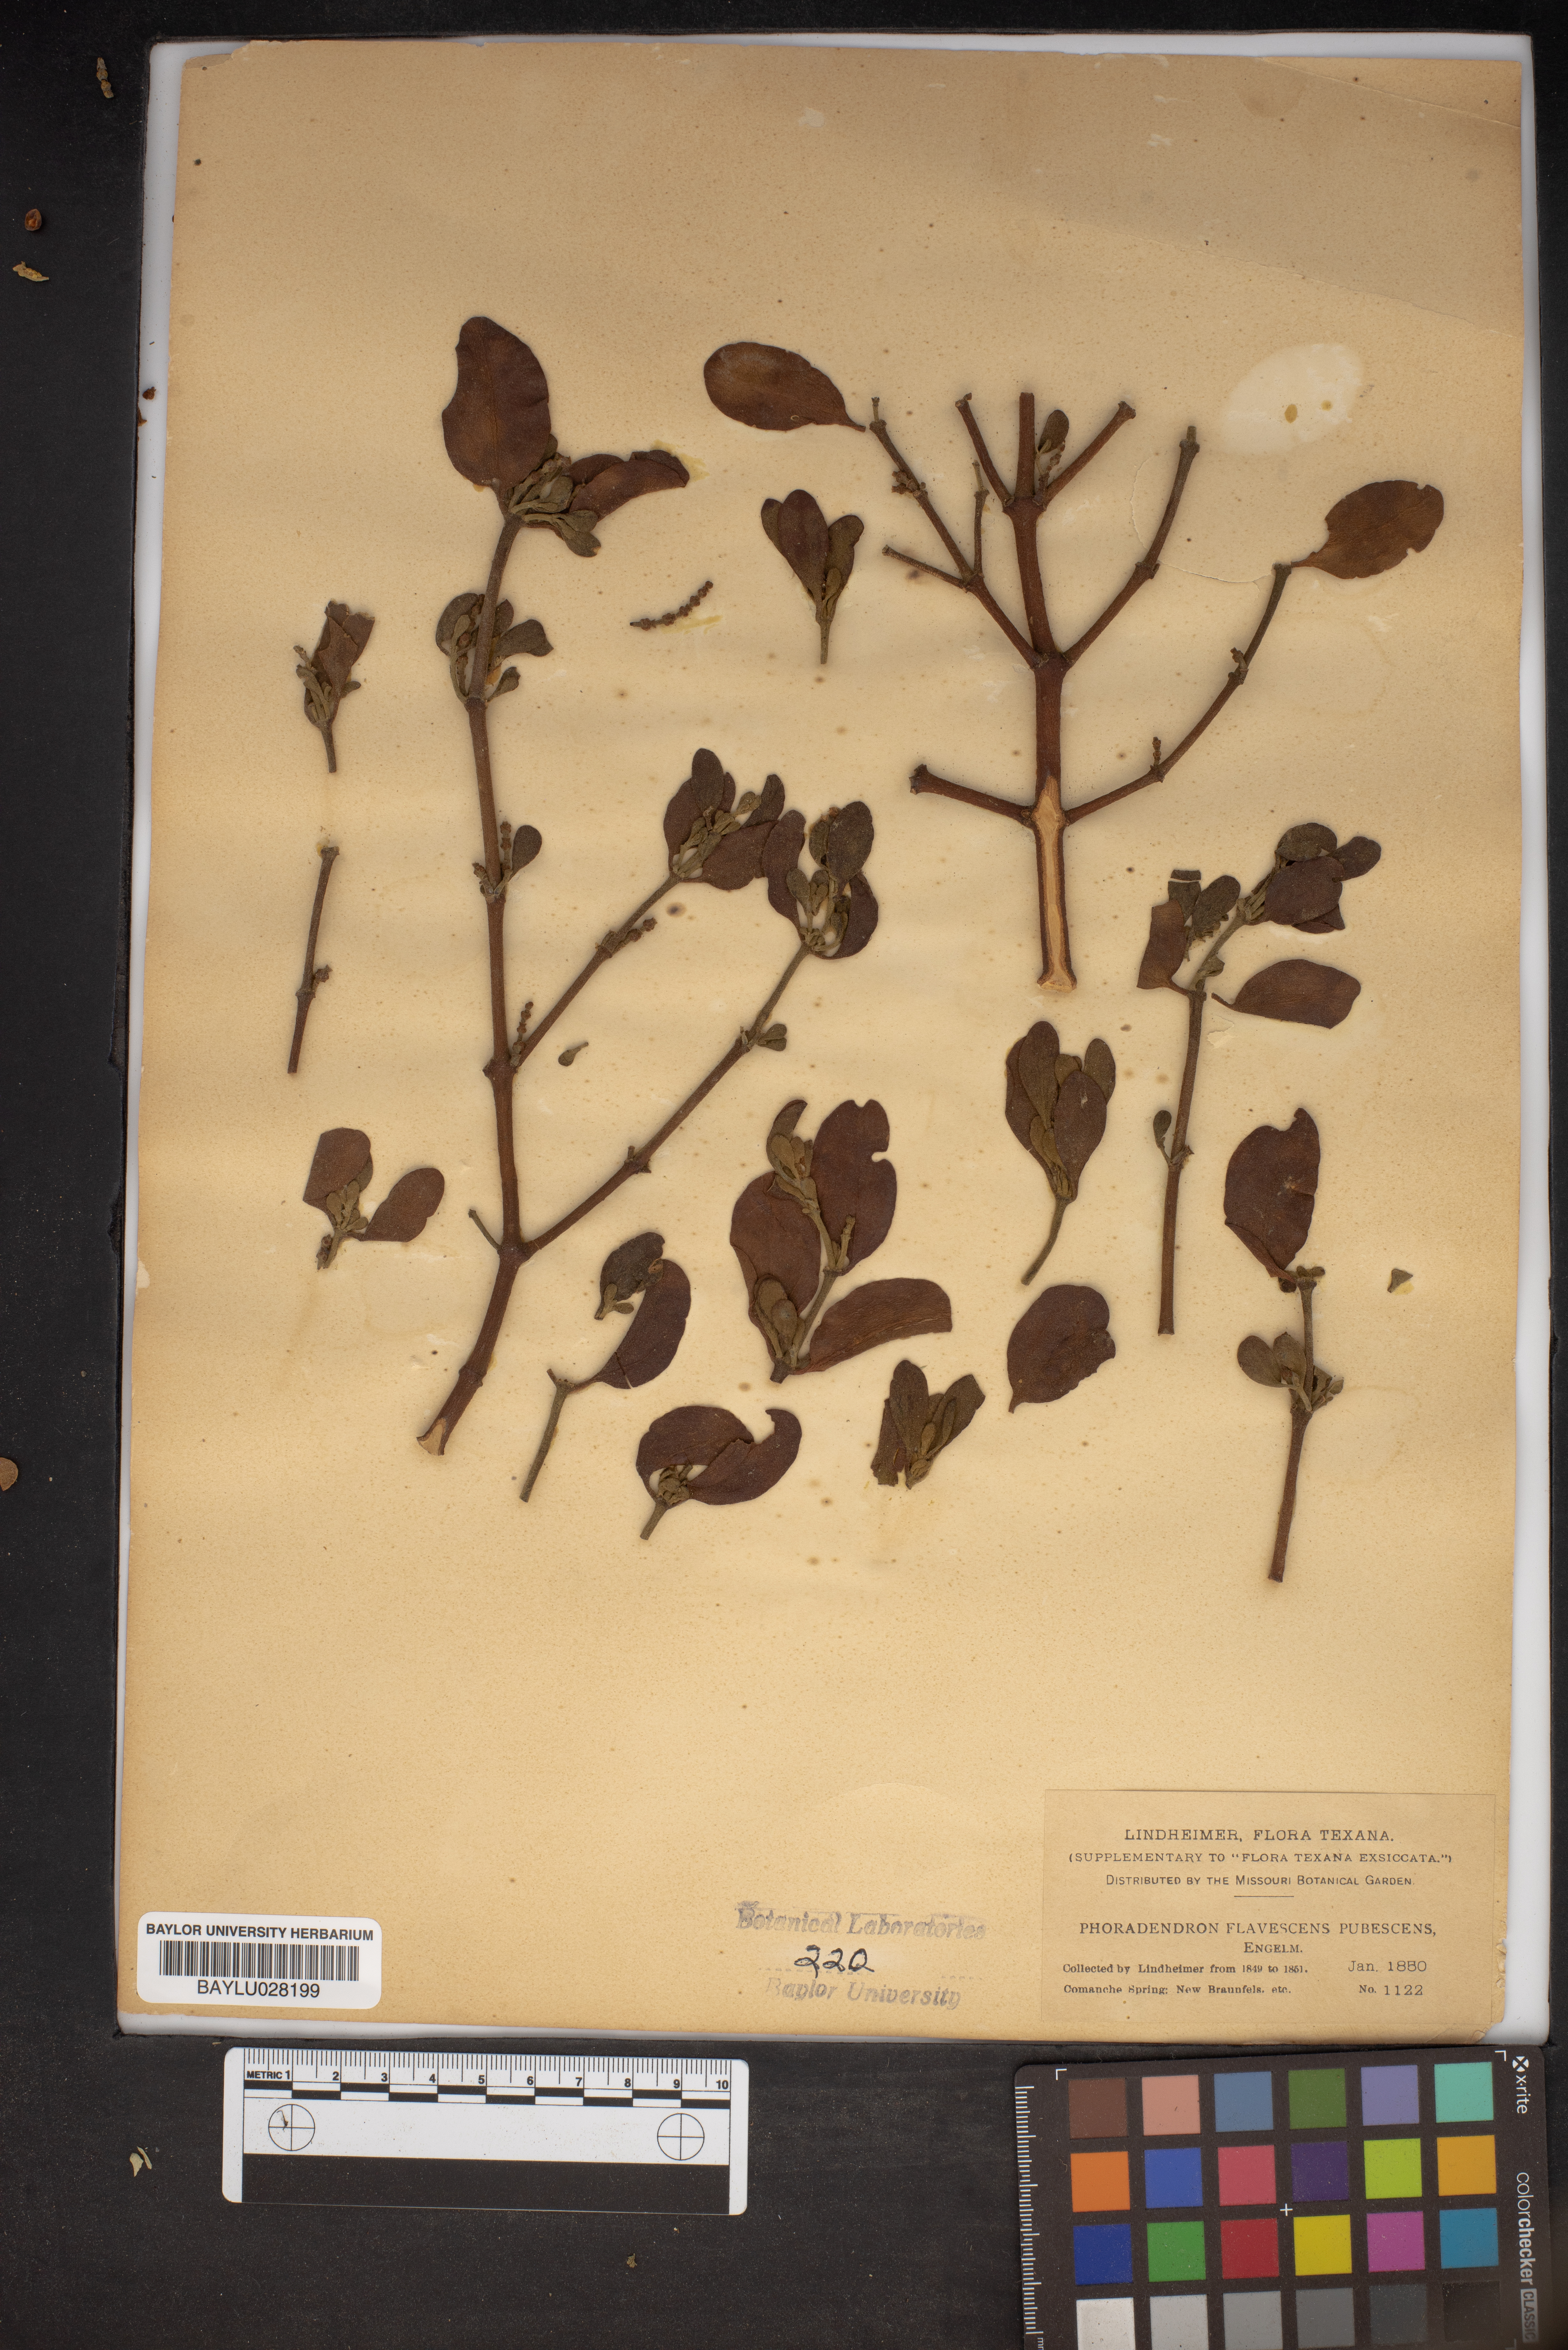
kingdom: Plantae
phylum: Tracheophyta
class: Magnoliopsida
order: Santalales
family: Viscaceae
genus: Phoradendron
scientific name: Phoradendron leucarpum
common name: Pacific mistletoe
